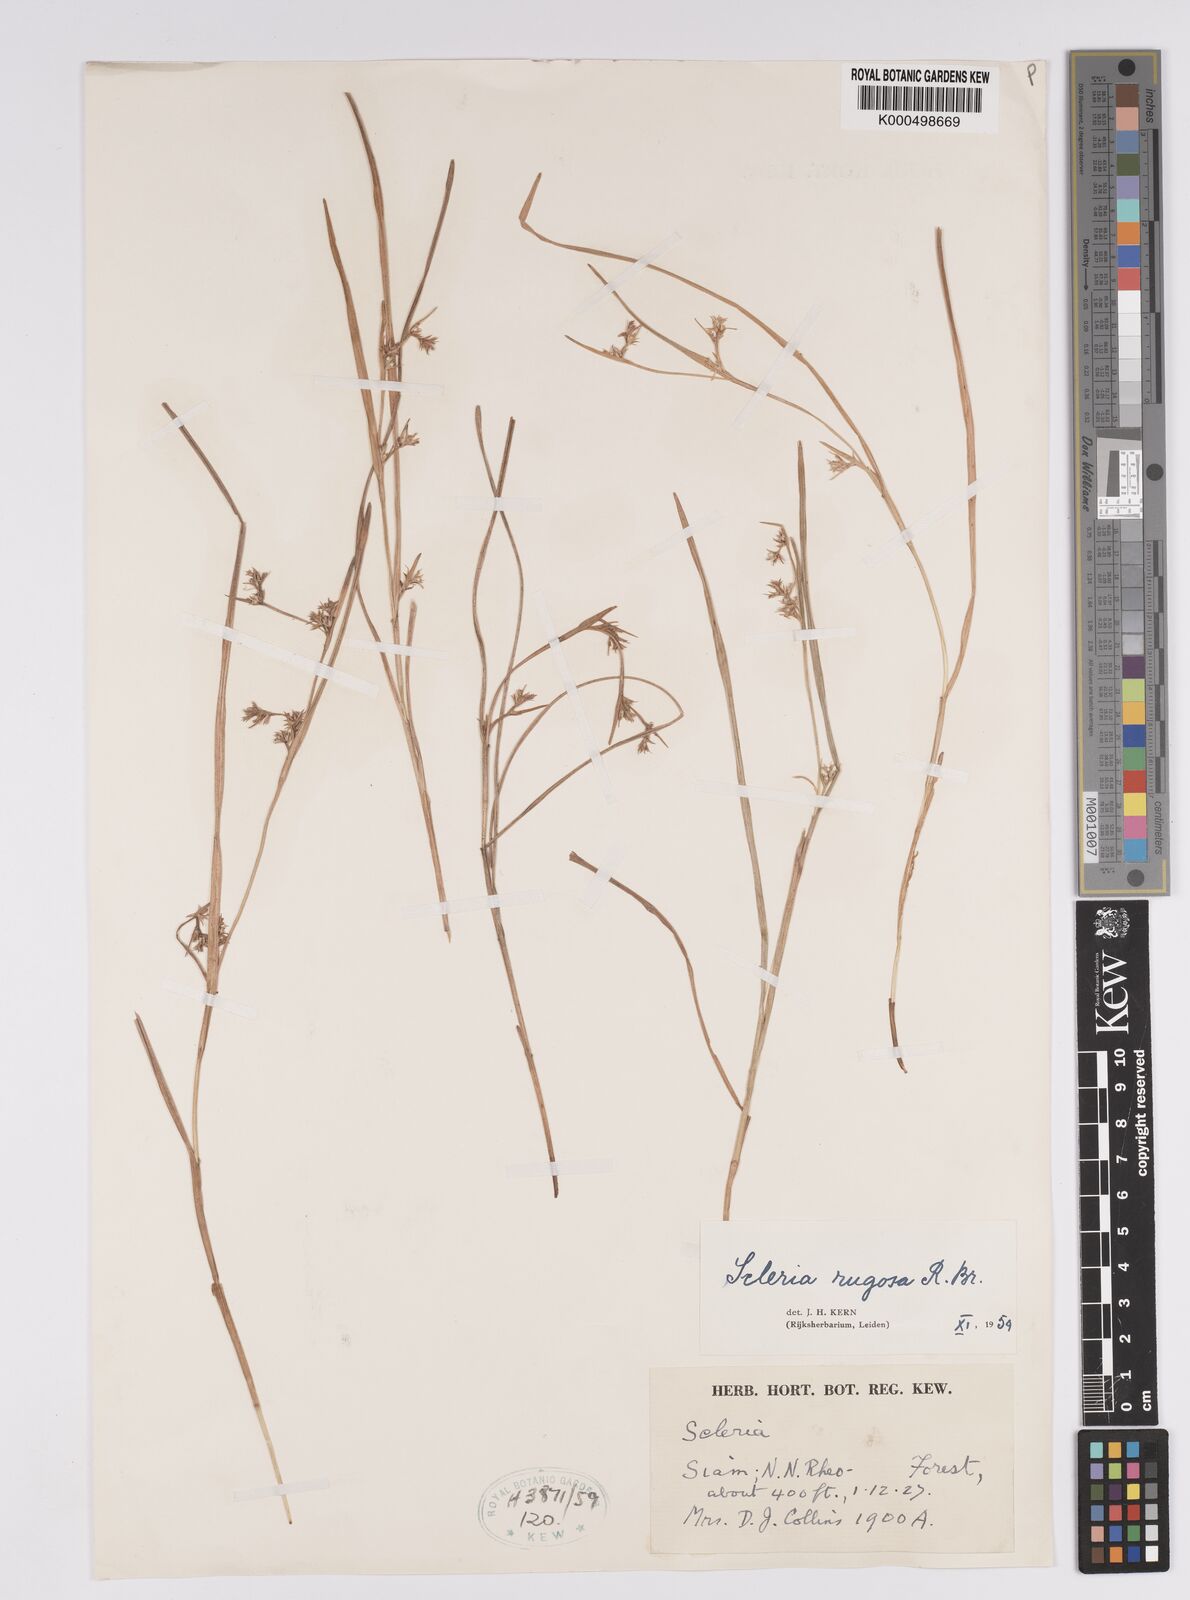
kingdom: Plantae
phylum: Tracheophyta
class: Liliopsida
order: Poales
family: Cyperaceae
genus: Scleria
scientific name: Scleria rugosa
